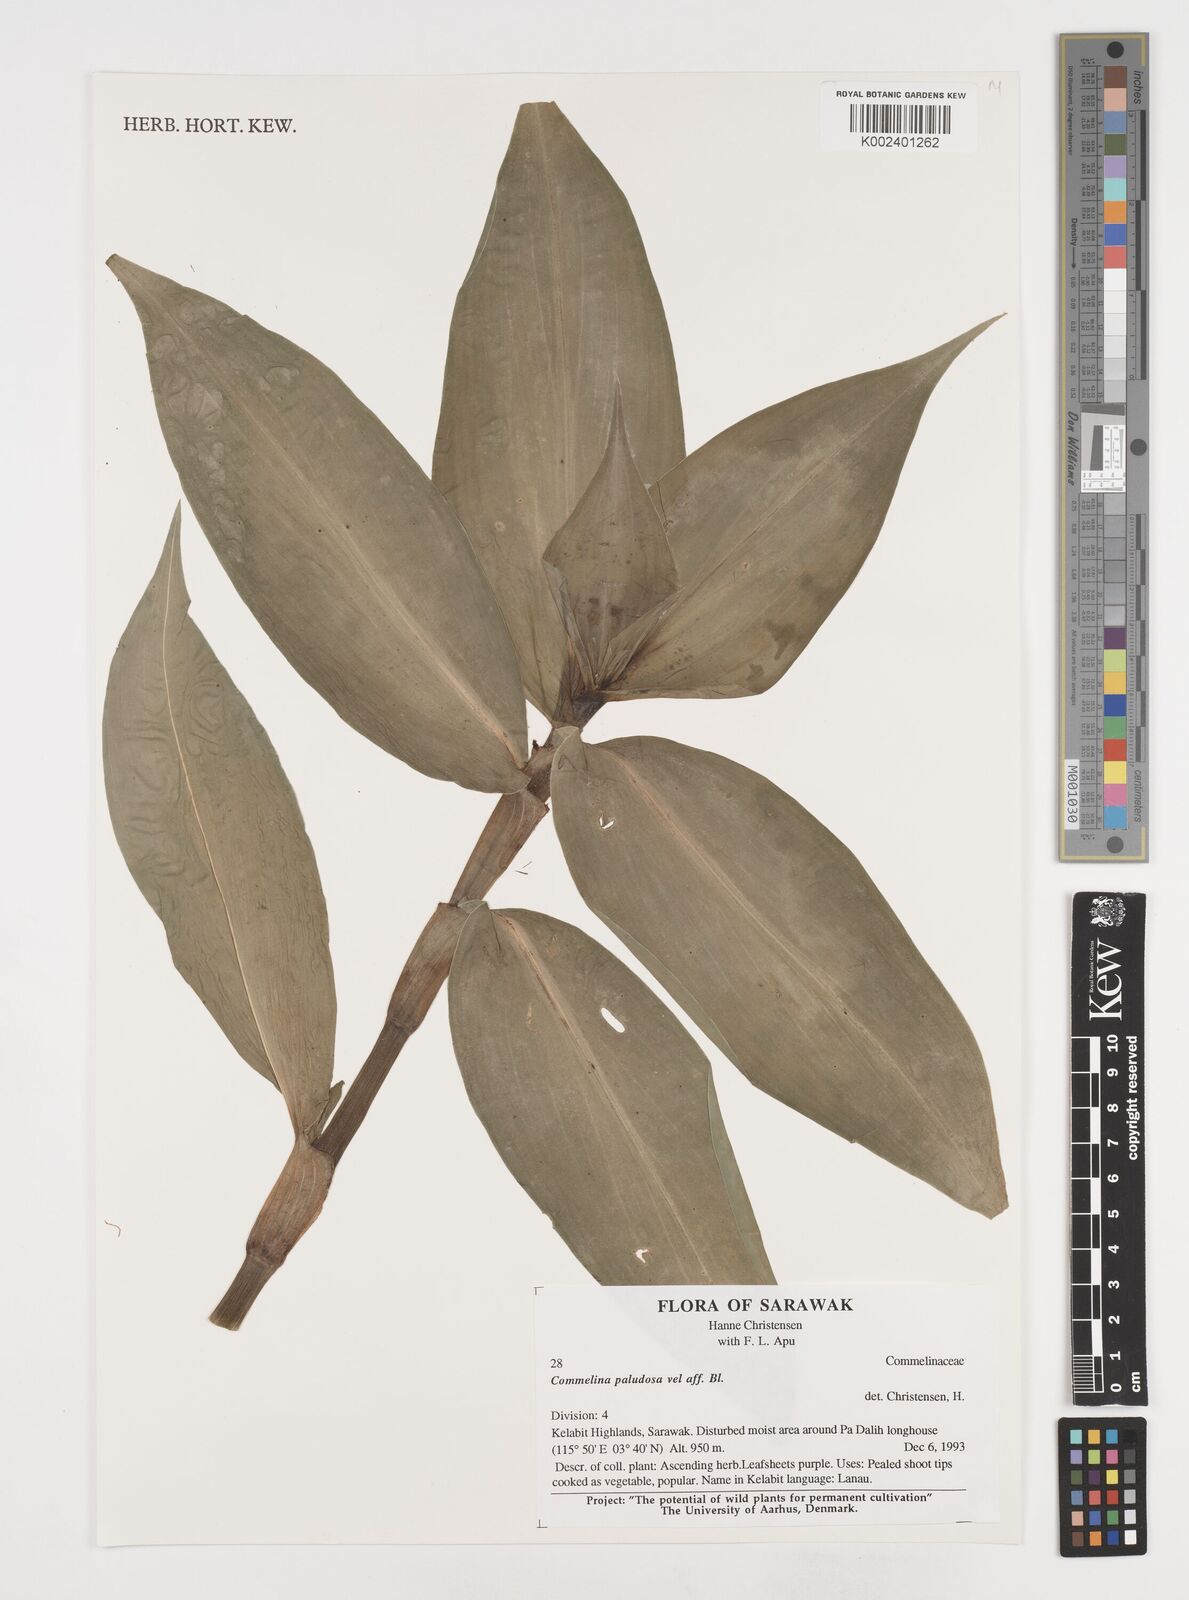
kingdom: Plantae
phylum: Tracheophyta
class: Liliopsida
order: Commelinales
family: Commelinaceae
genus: Pollia
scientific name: Pollia
